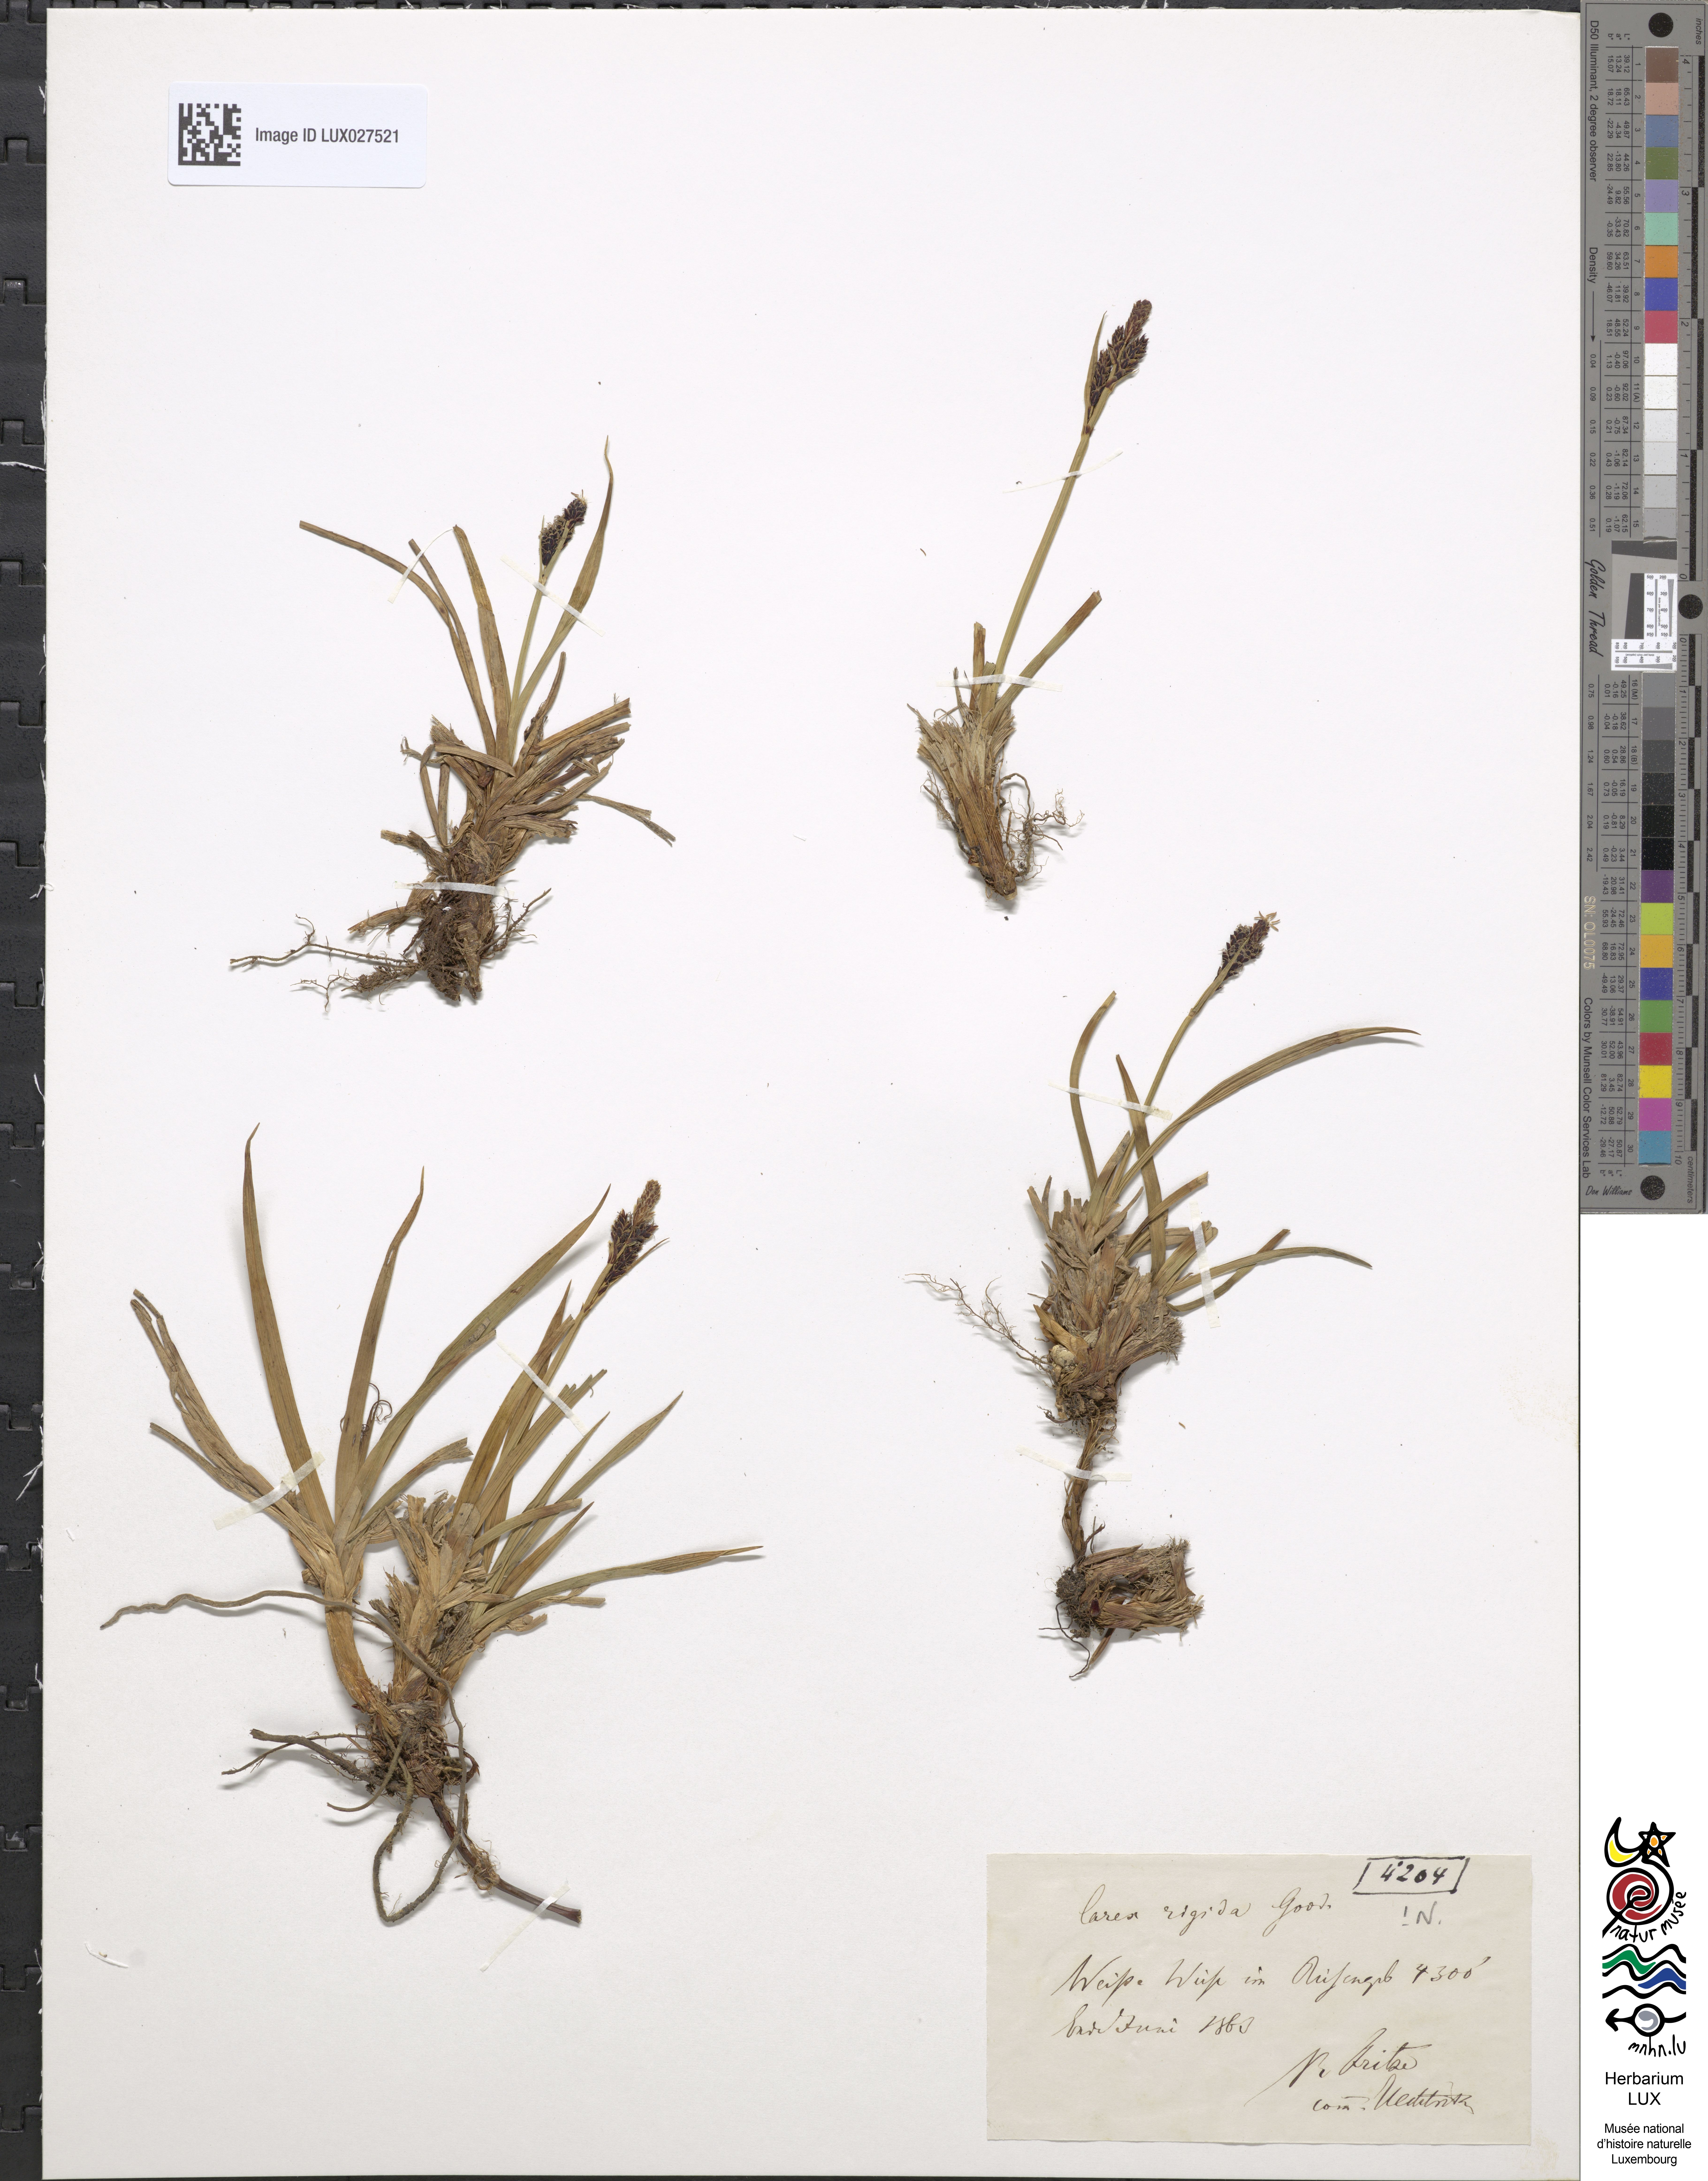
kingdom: Plantae
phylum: Tracheophyta
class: Liliopsida
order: Poales
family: Cyperaceae
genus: Carex
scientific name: Carex ferruginea
